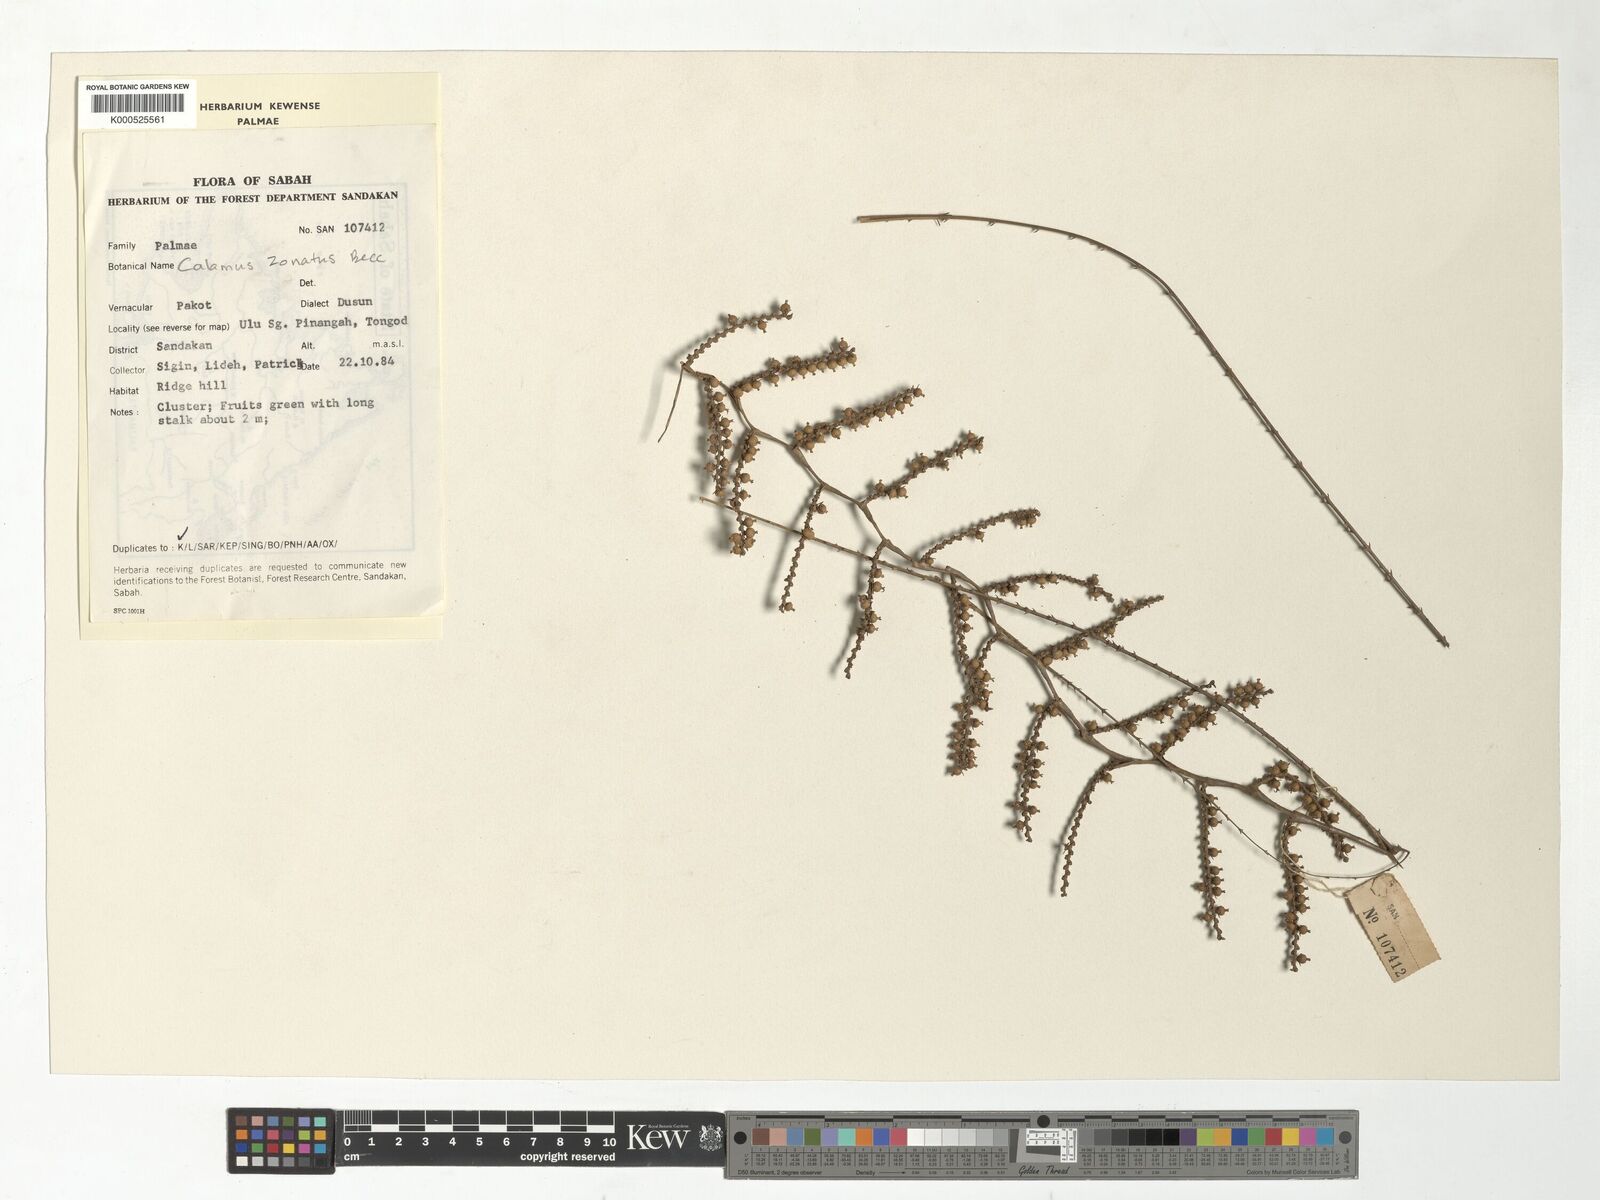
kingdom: Plantae
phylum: Tracheophyta
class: Liliopsida
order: Arecales
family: Arecaceae
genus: Calamus
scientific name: Calamus zonatus
